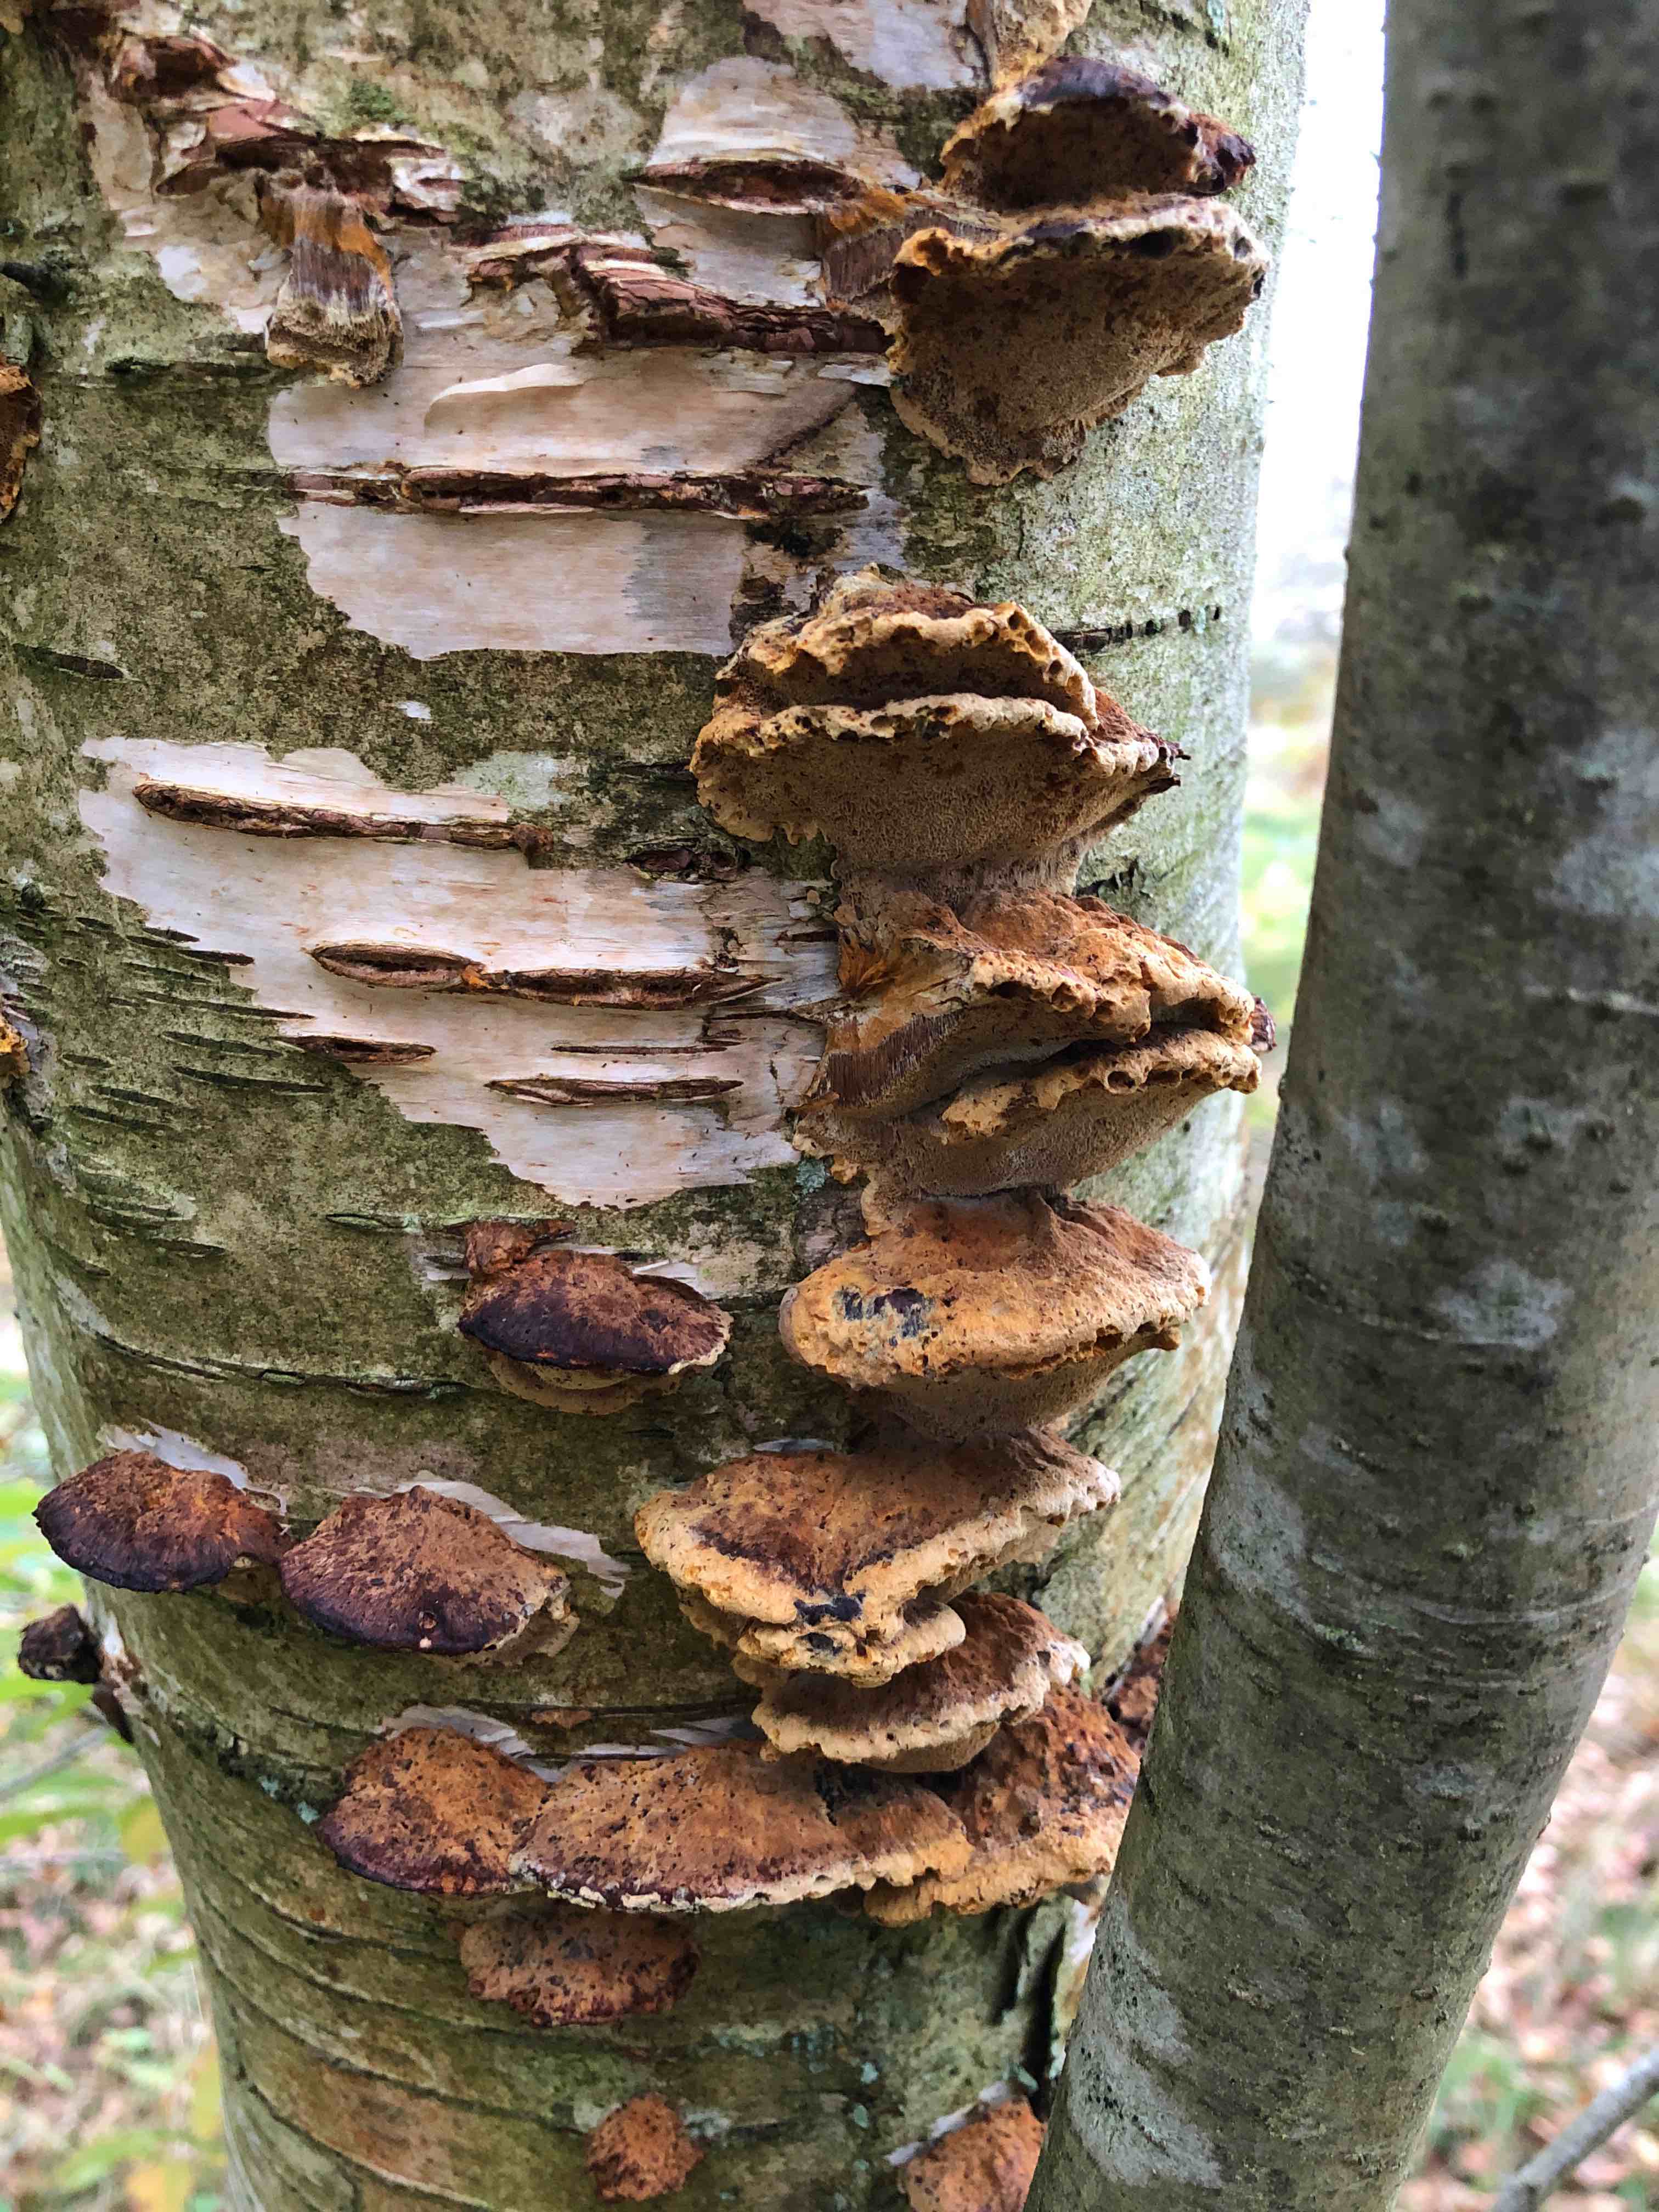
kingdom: Fungi
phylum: Basidiomycota
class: Agaricomycetes
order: Hymenochaetales
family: Hymenochaetaceae
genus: Xanthoporia
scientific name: Xanthoporia radiata
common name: elle-spejlporesvamp
